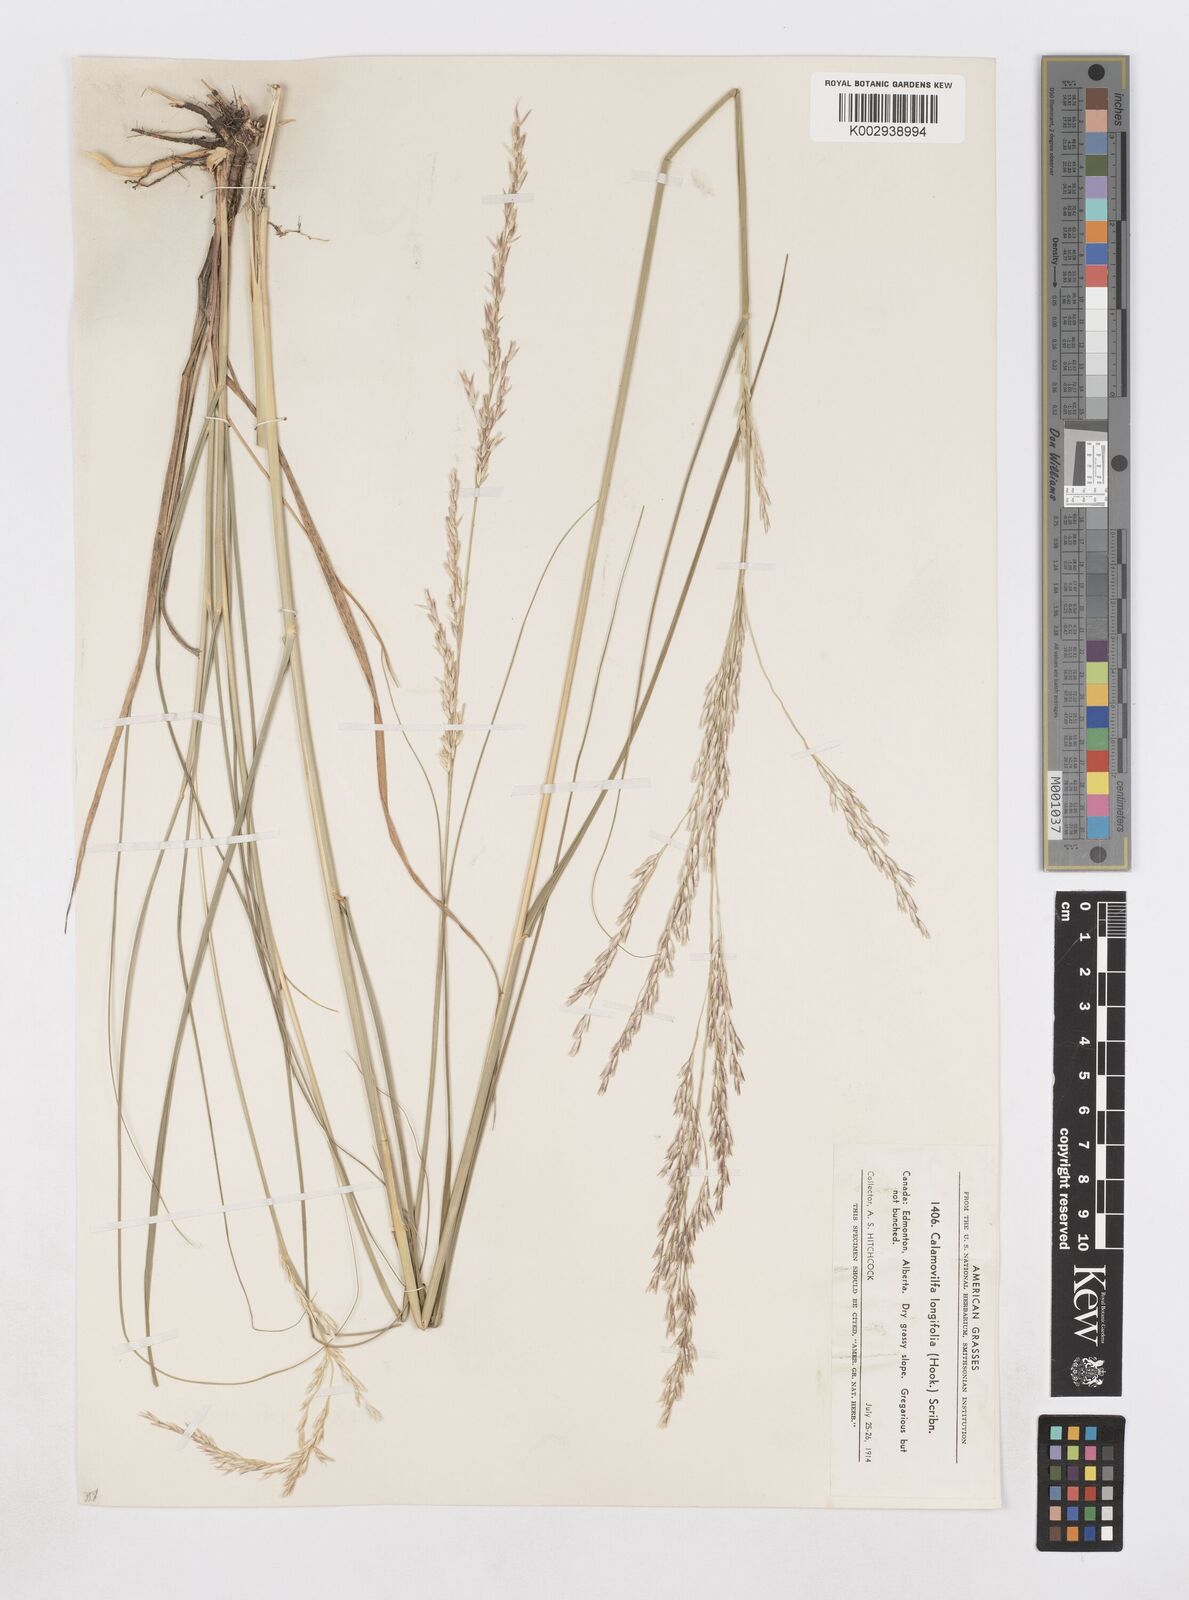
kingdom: Plantae
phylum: Tracheophyta
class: Liliopsida
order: Poales
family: Poaceae
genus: Sporobolus
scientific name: Sporobolus rigidus
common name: Prairie sandreed
